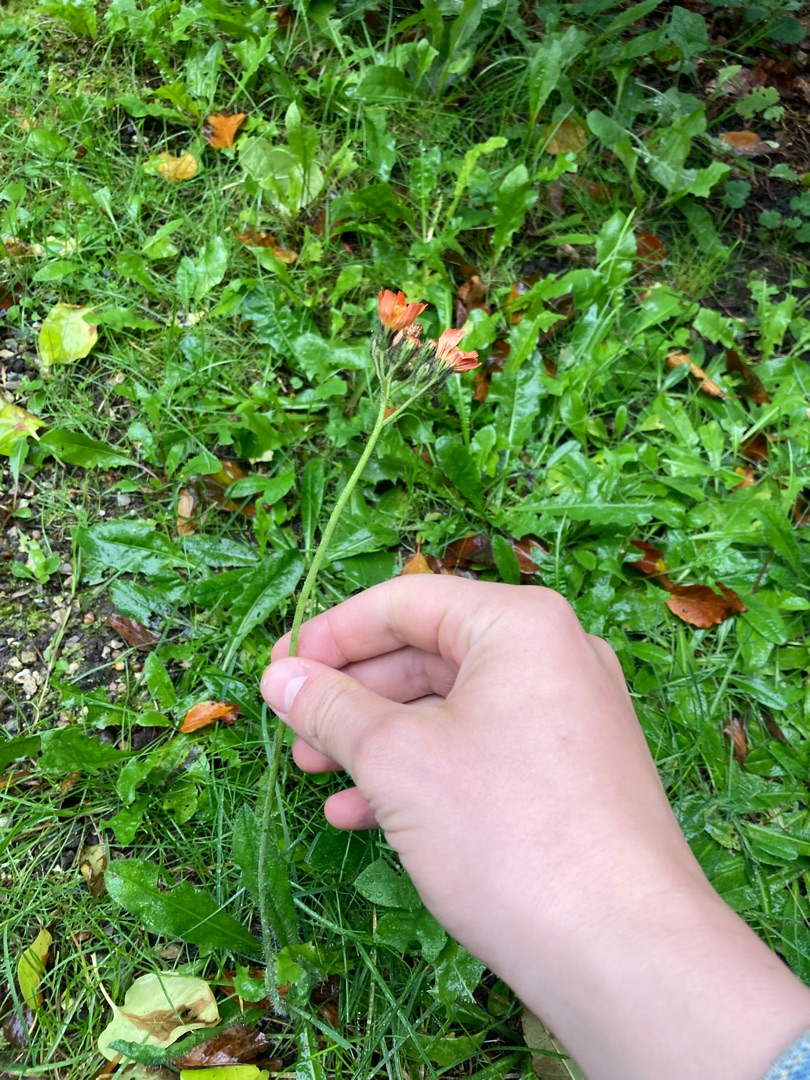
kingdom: Plantae
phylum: Tracheophyta
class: Magnoliopsida
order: Asterales
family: Asteraceae
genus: Pilosella
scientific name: Pilosella aurantiaca
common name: Pomerans-høgeurt
